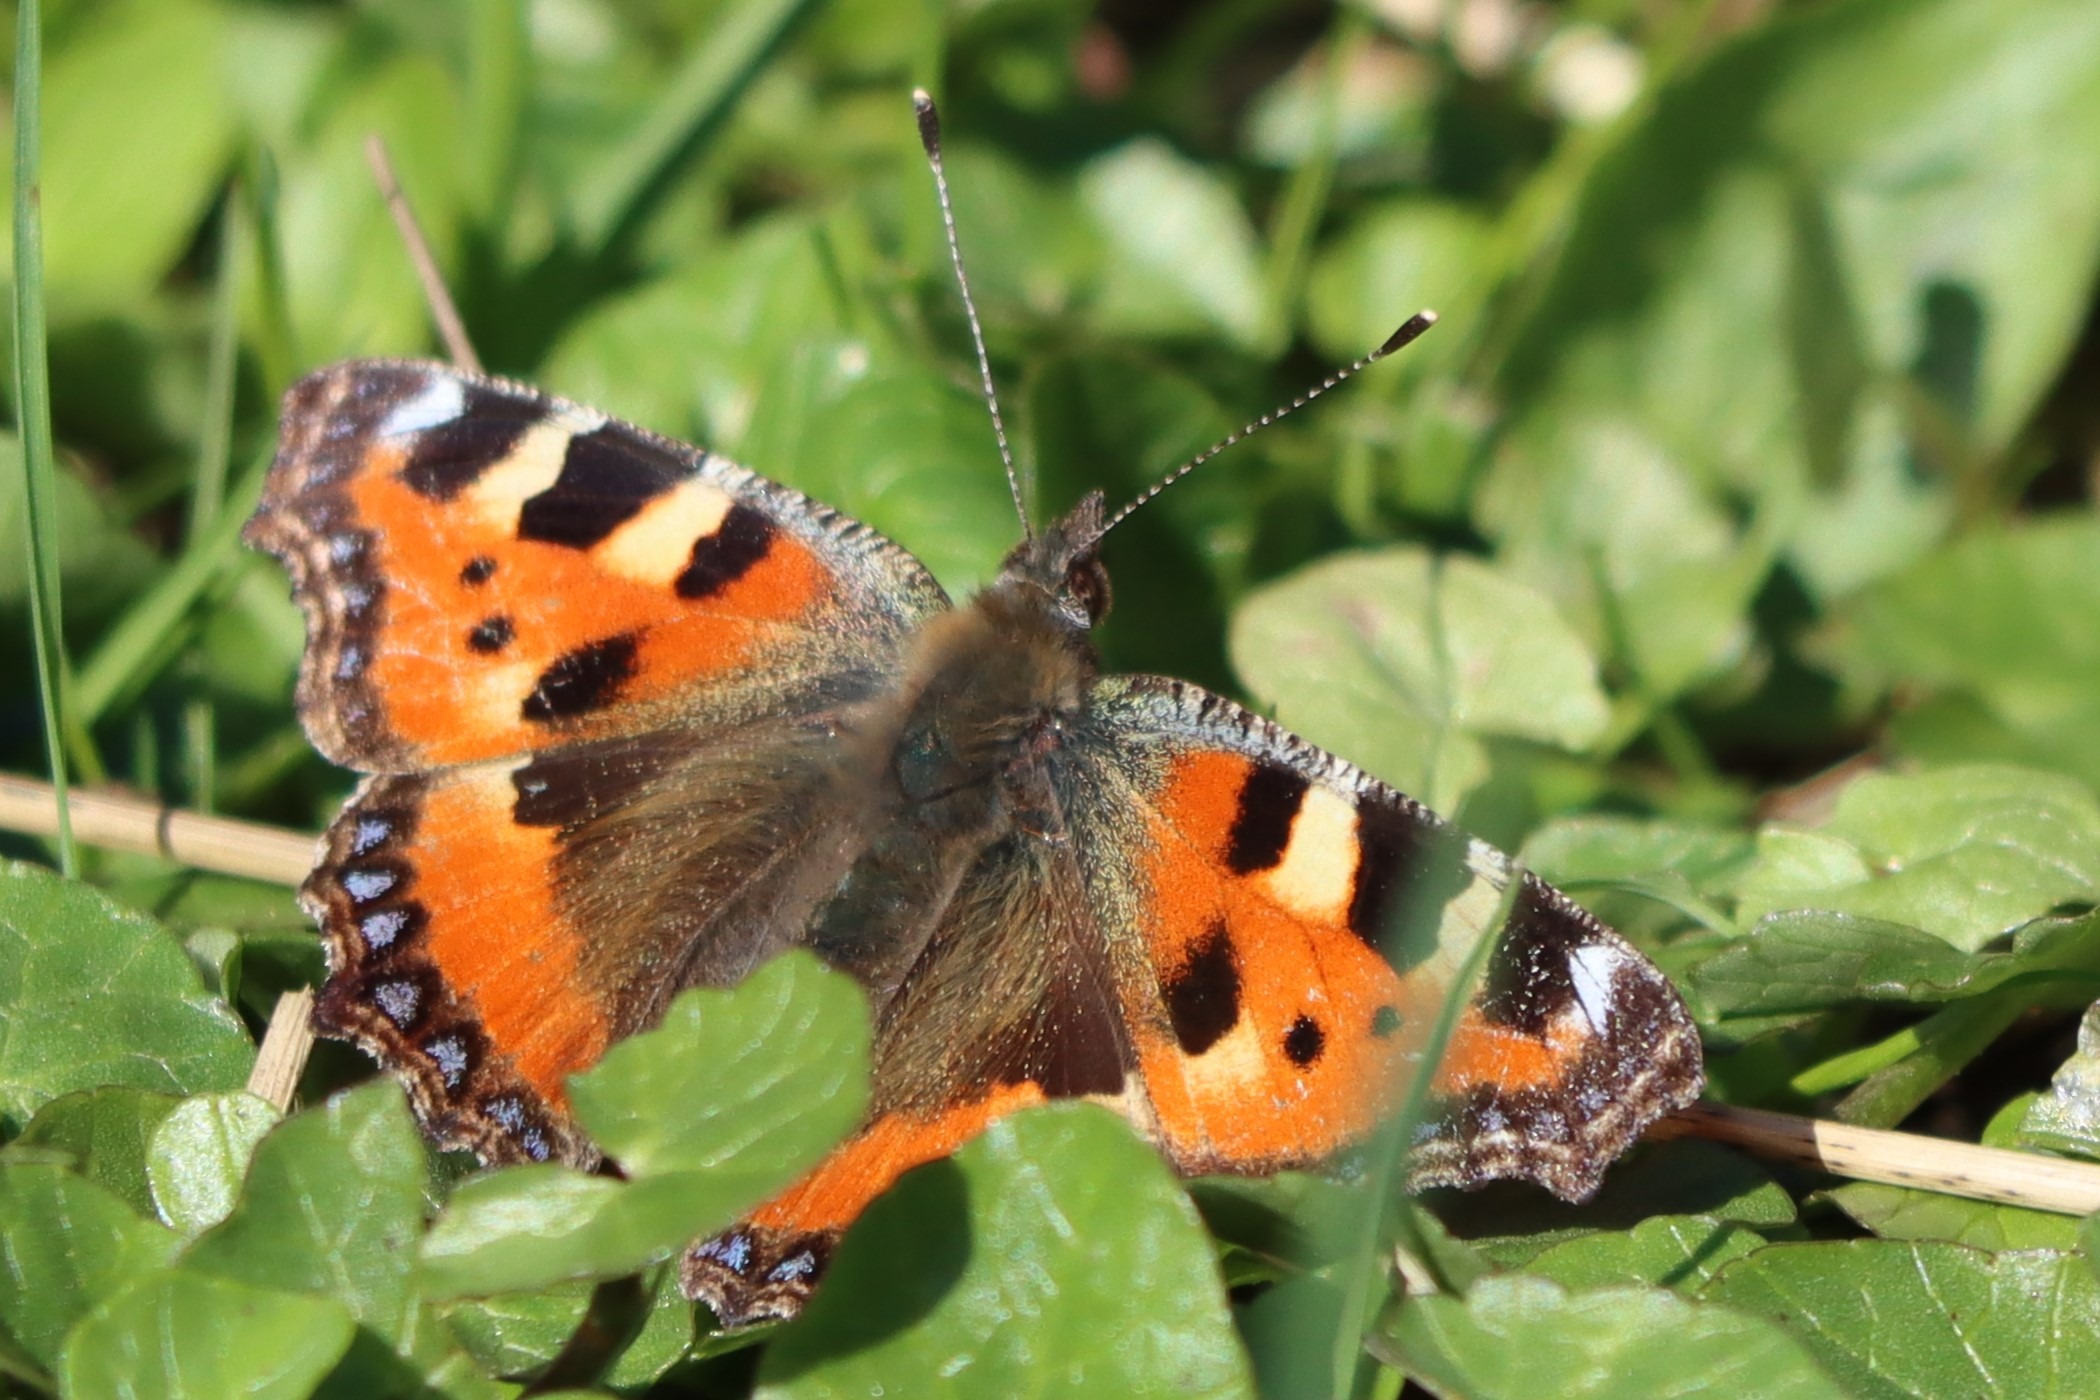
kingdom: Animalia
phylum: Arthropoda
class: Insecta
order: Lepidoptera
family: Nymphalidae
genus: Aglais
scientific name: Aglais urticae
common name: Nældens takvinge
